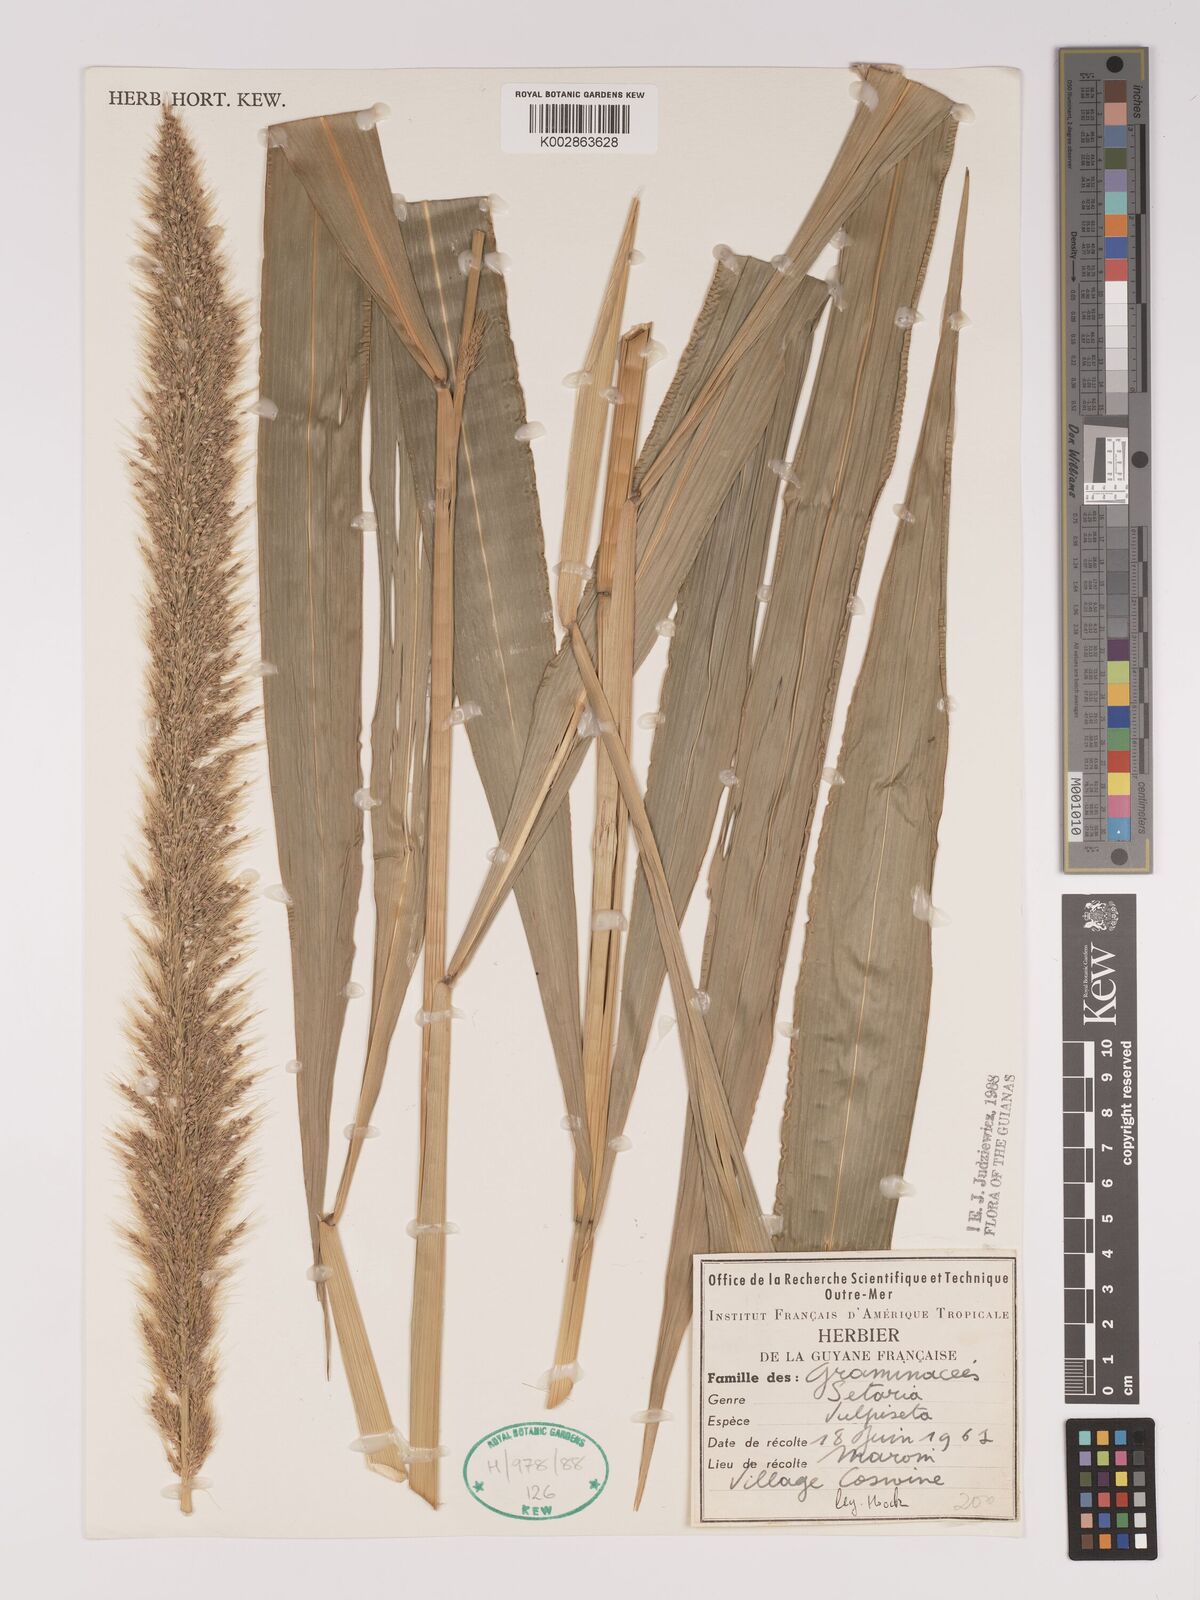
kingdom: Plantae
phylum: Tracheophyta
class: Liliopsida
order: Poales
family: Poaceae
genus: Setaria
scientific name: Setaria vulpiseta
